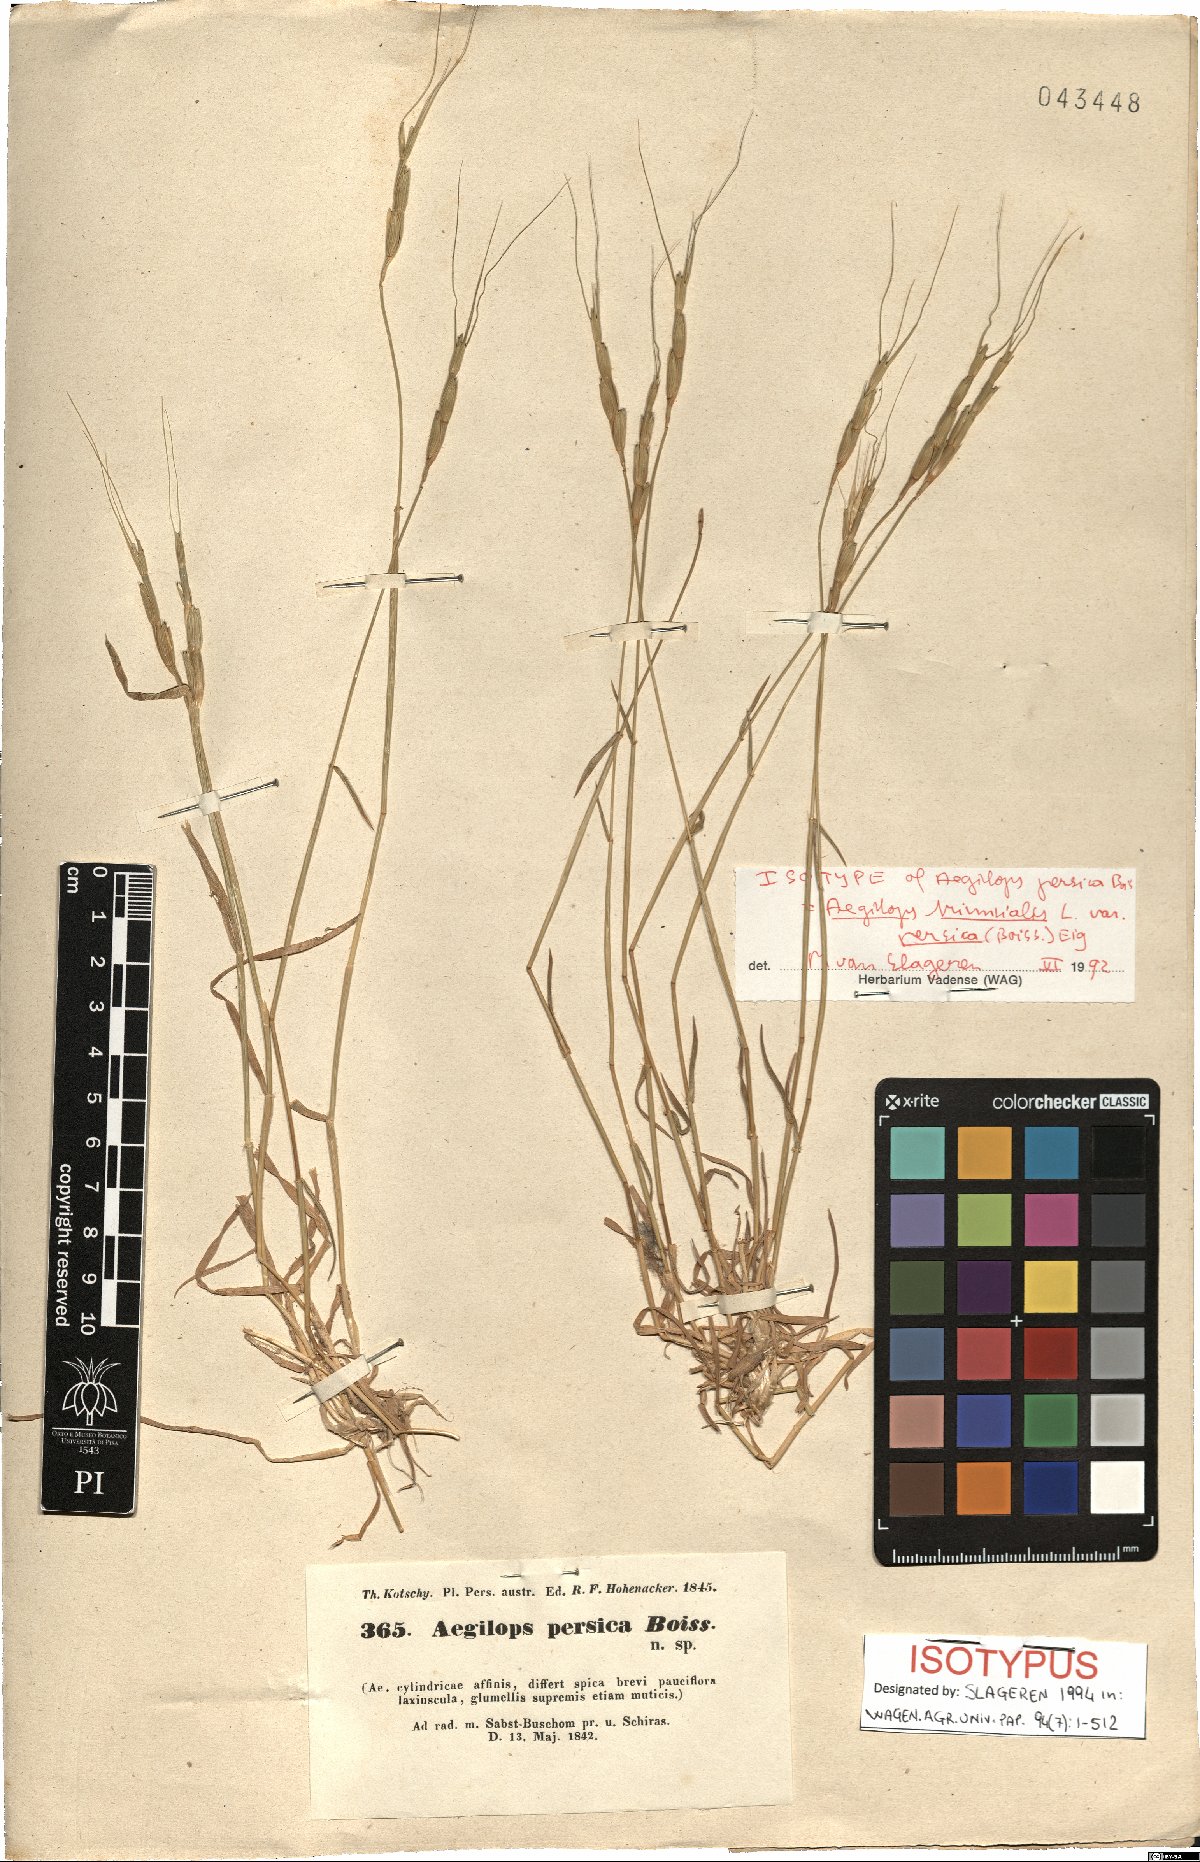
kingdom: Plantae
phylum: Tracheophyta
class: Liliopsida
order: Poales
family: Poaceae
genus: Aegilops
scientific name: Aegilops triuncialis
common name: Barb goat grass
